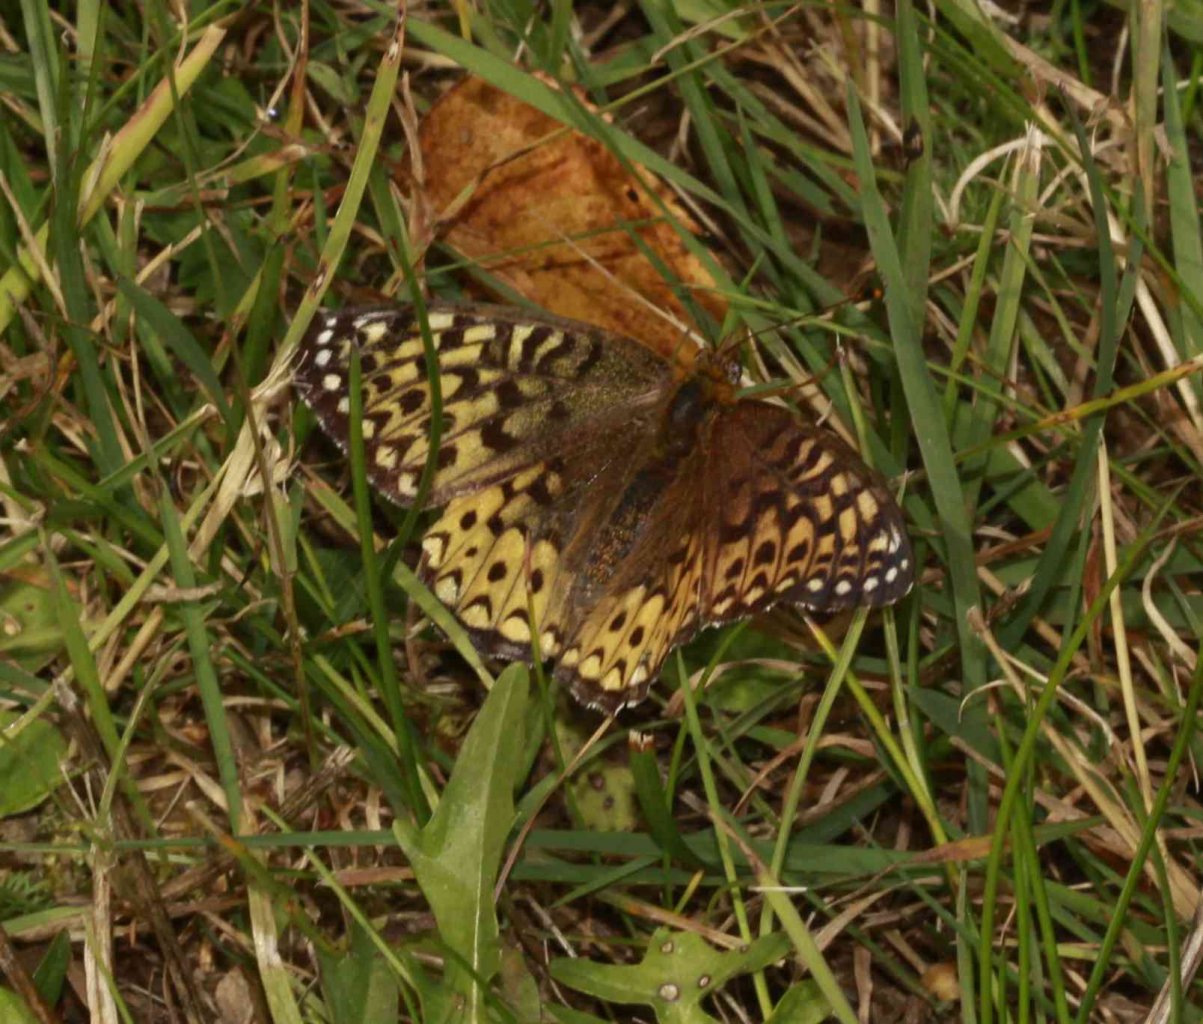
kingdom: Animalia
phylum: Arthropoda
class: Insecta
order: Lepidoptera
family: Nymphalidae
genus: Speyeria
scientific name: Speyeria atlantis
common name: Atlantis Fritillary
